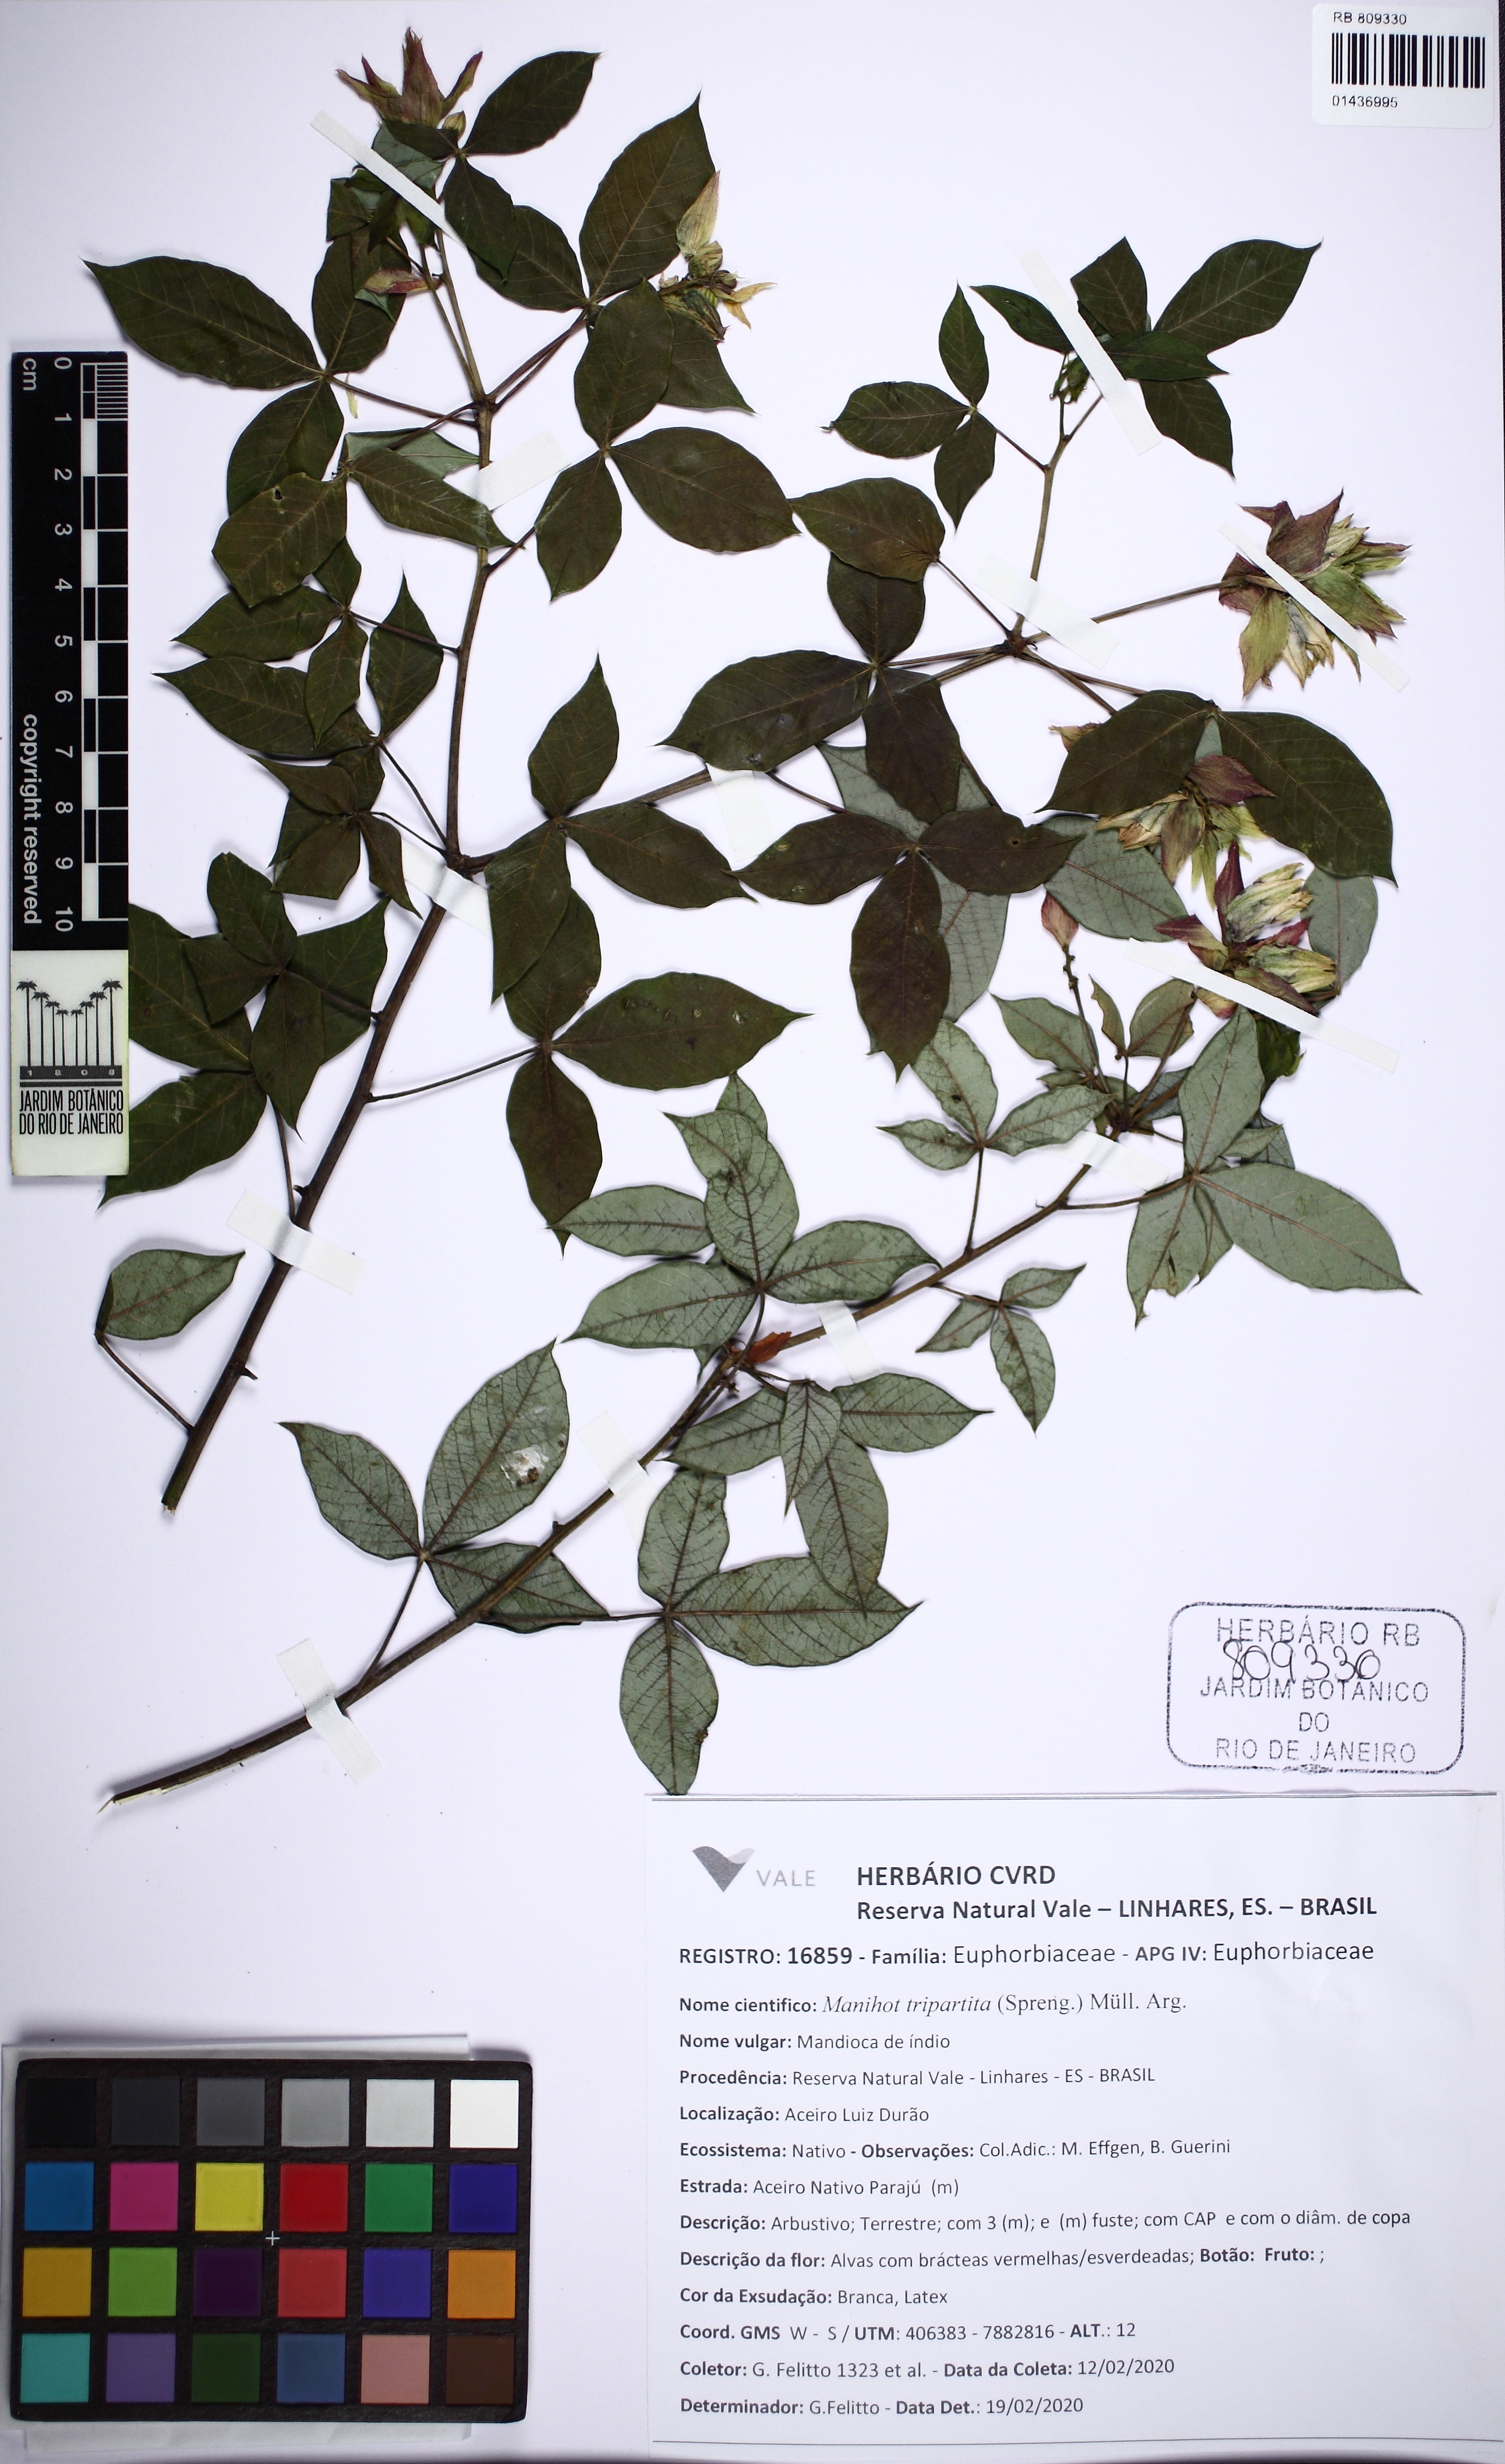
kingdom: Plantae
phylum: Tracheophyta
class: Magnoliopsida
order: Malpighiales
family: Euphorbiaceae
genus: Manihot
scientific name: Manihot tripartita
